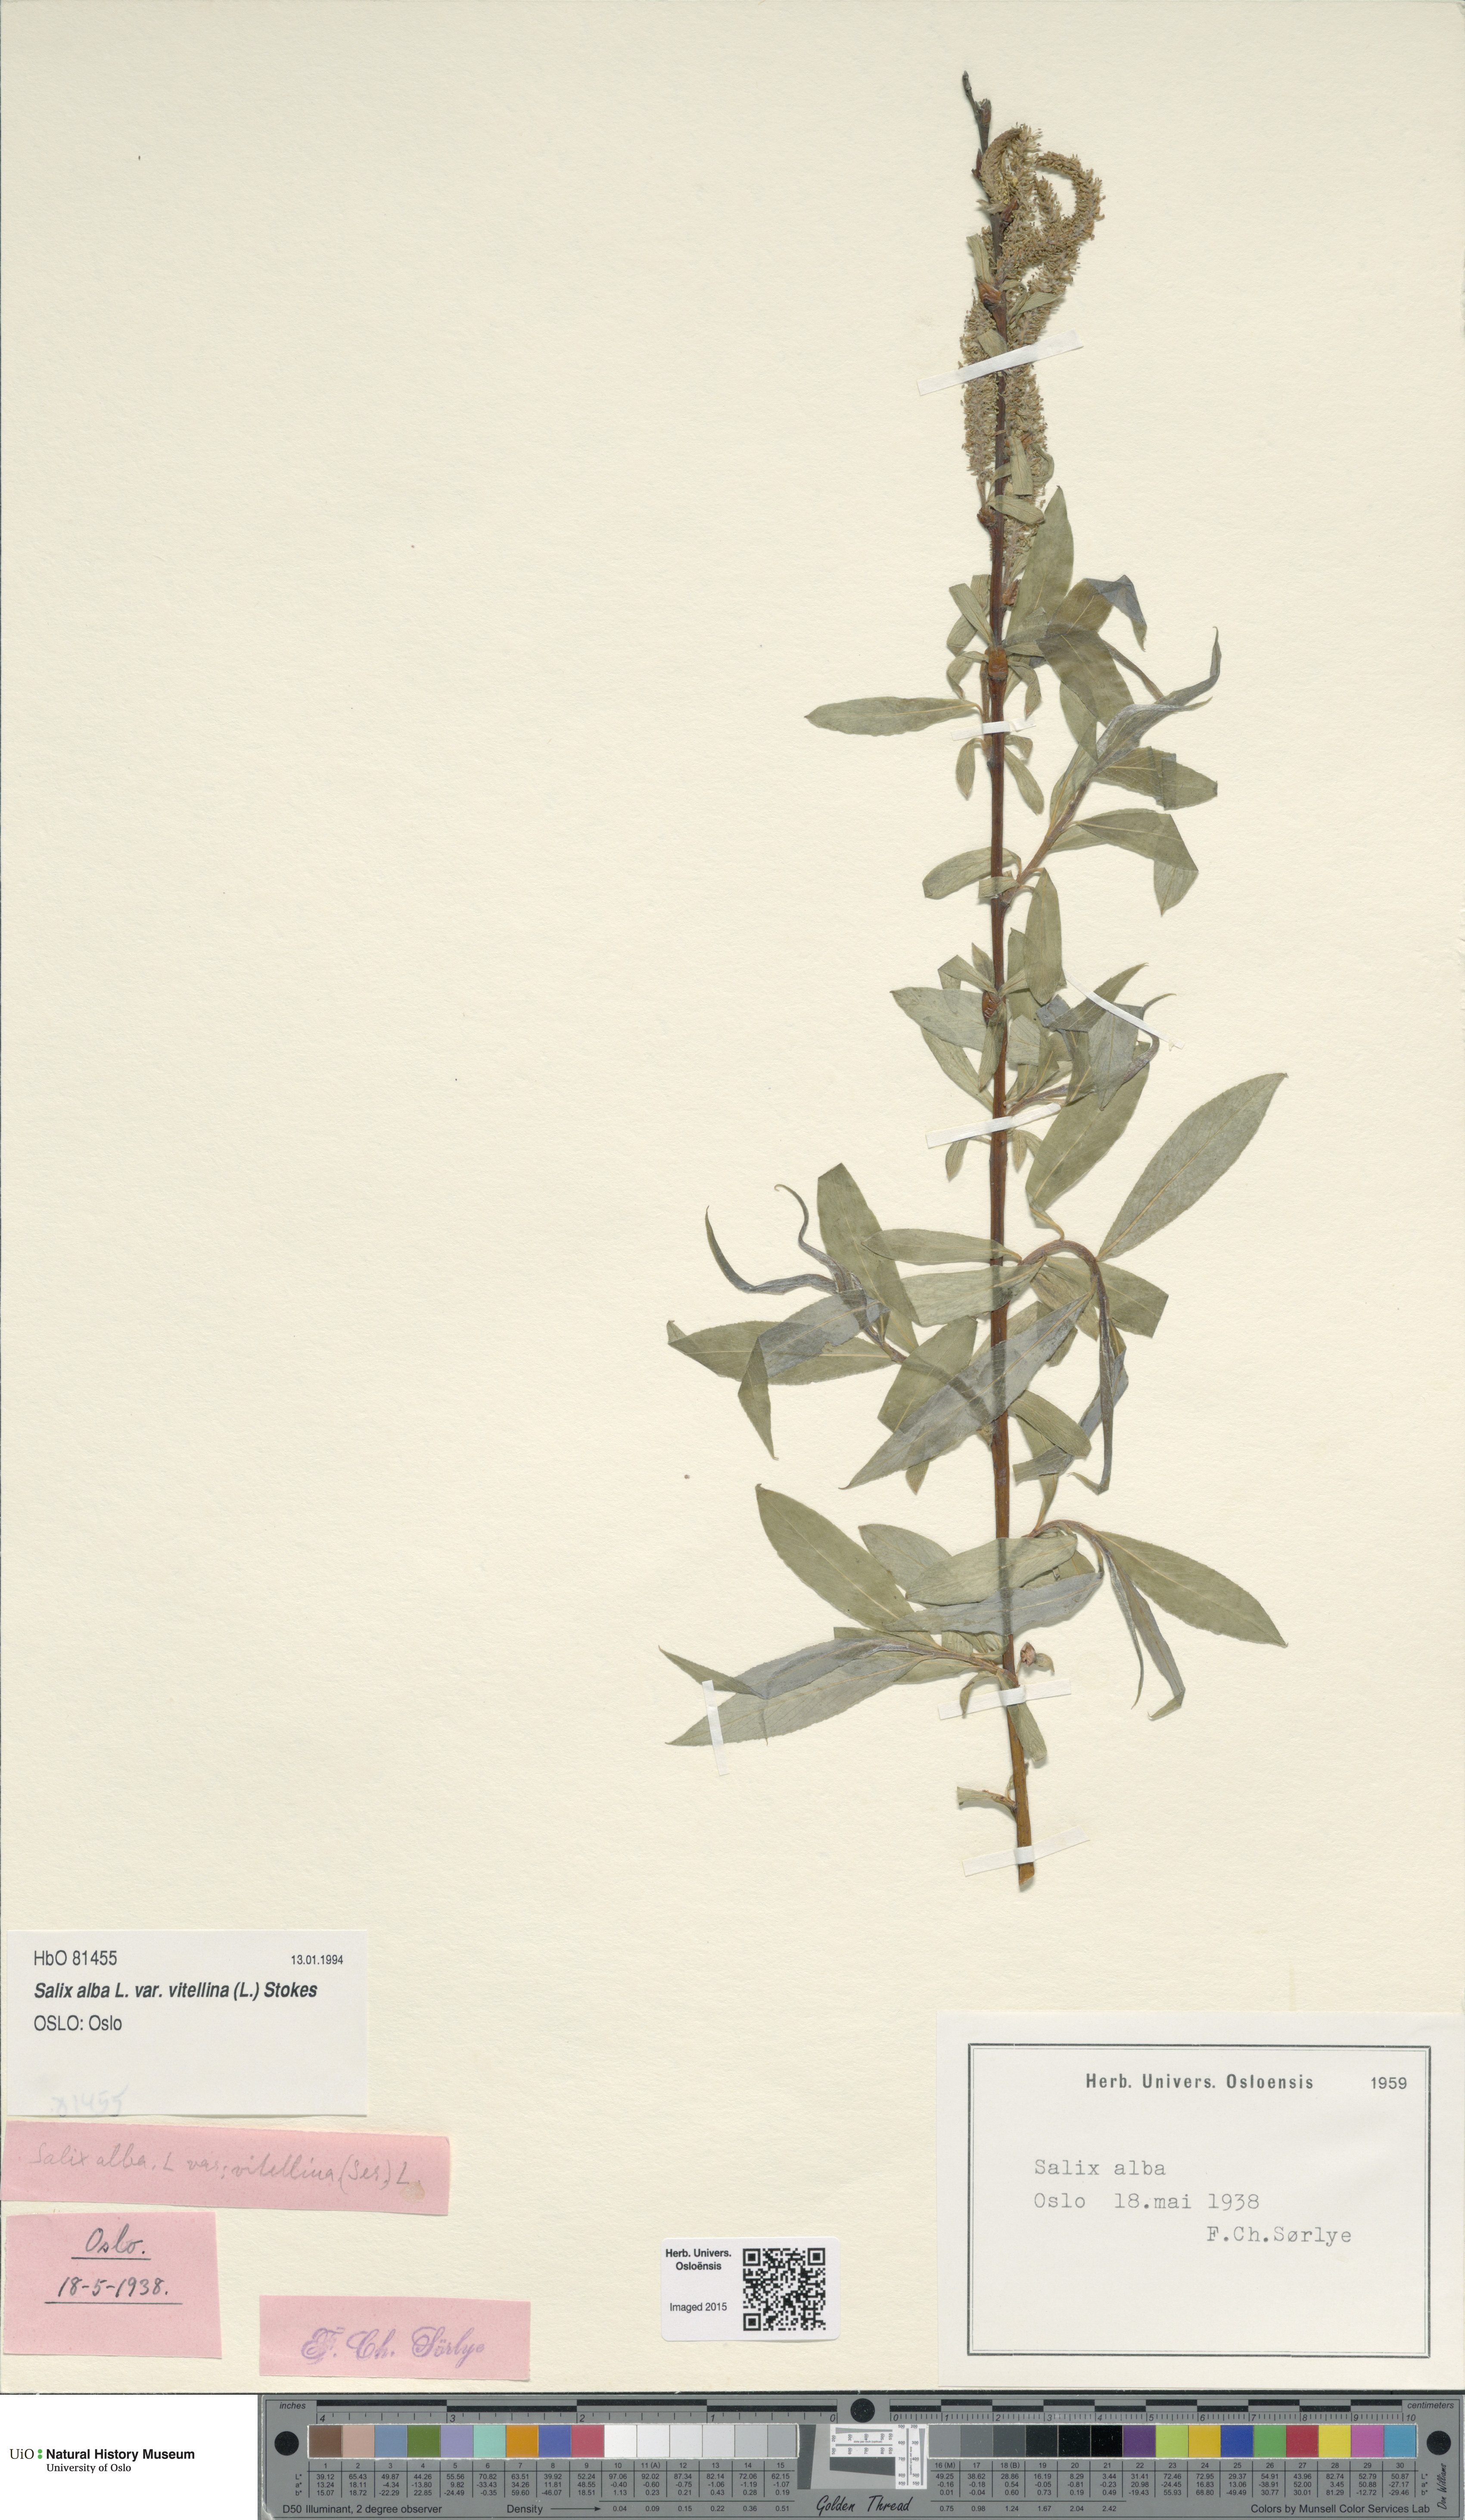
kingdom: Plantae
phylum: Tracheophyta
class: Magnoliopsida
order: Malpighiales
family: Salicaceae
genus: Salix
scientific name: Salix alba
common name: White willow
